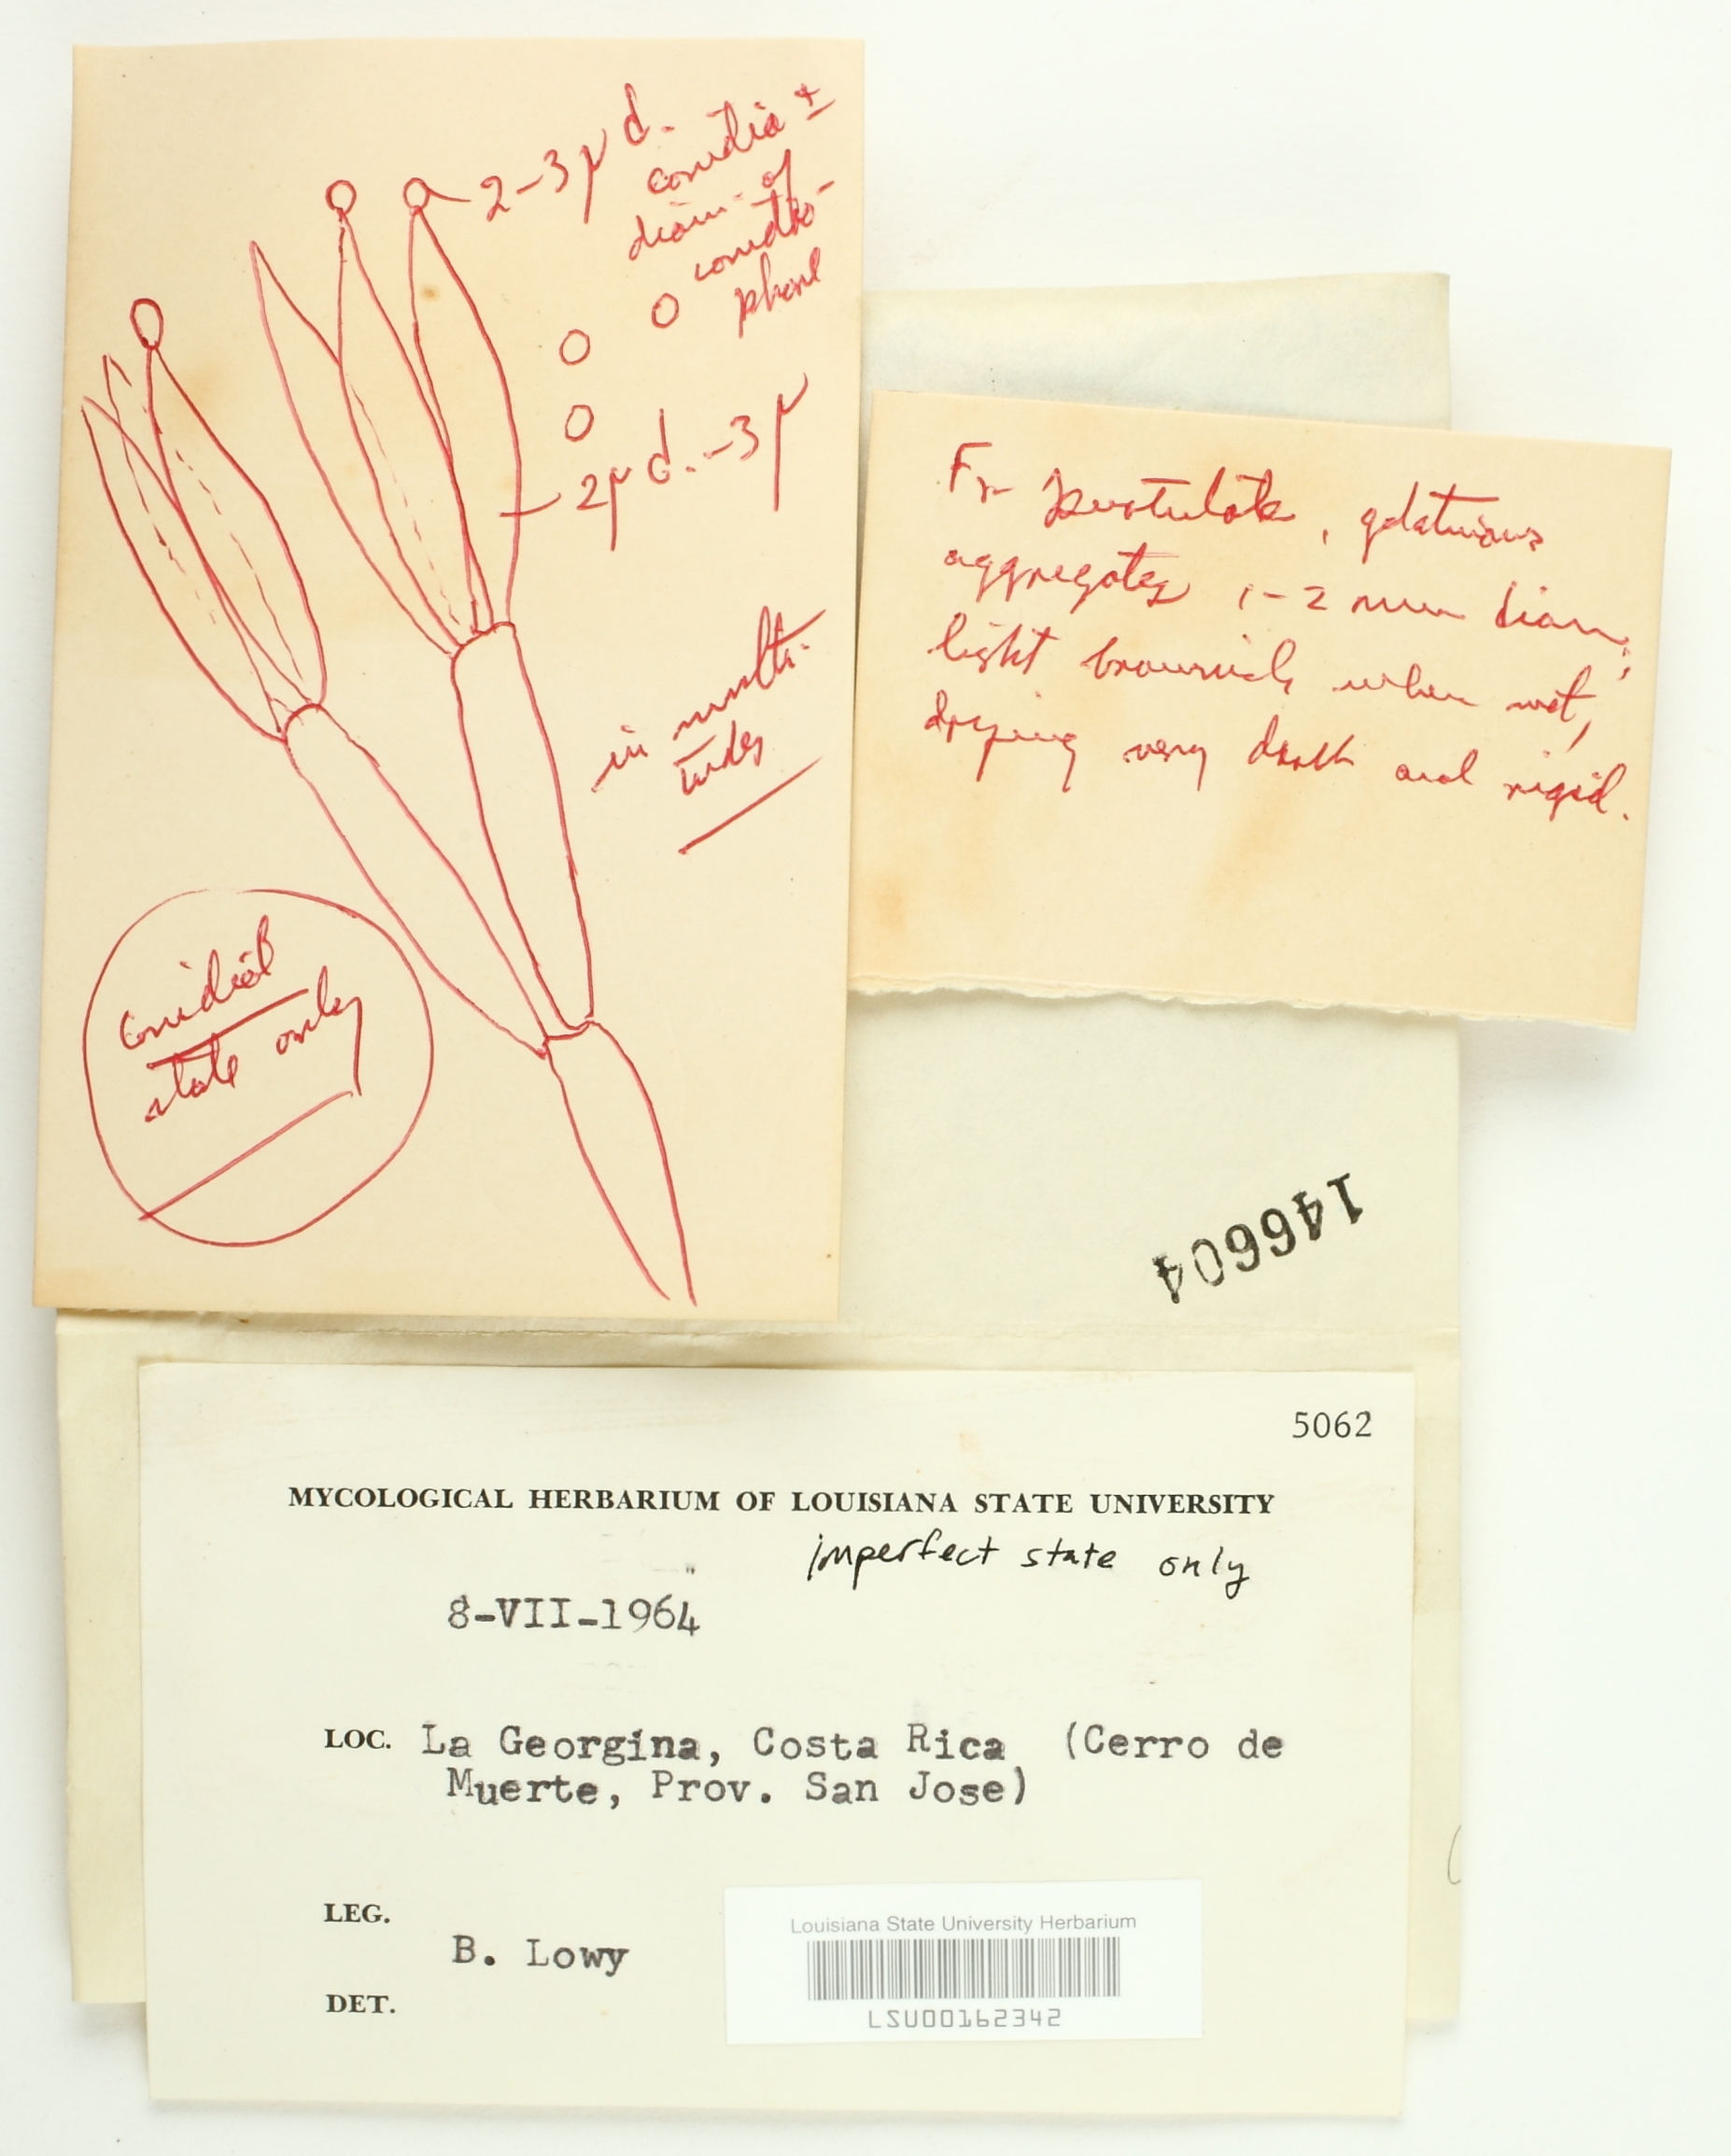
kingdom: Fungi
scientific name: Fungi
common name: Fungi
